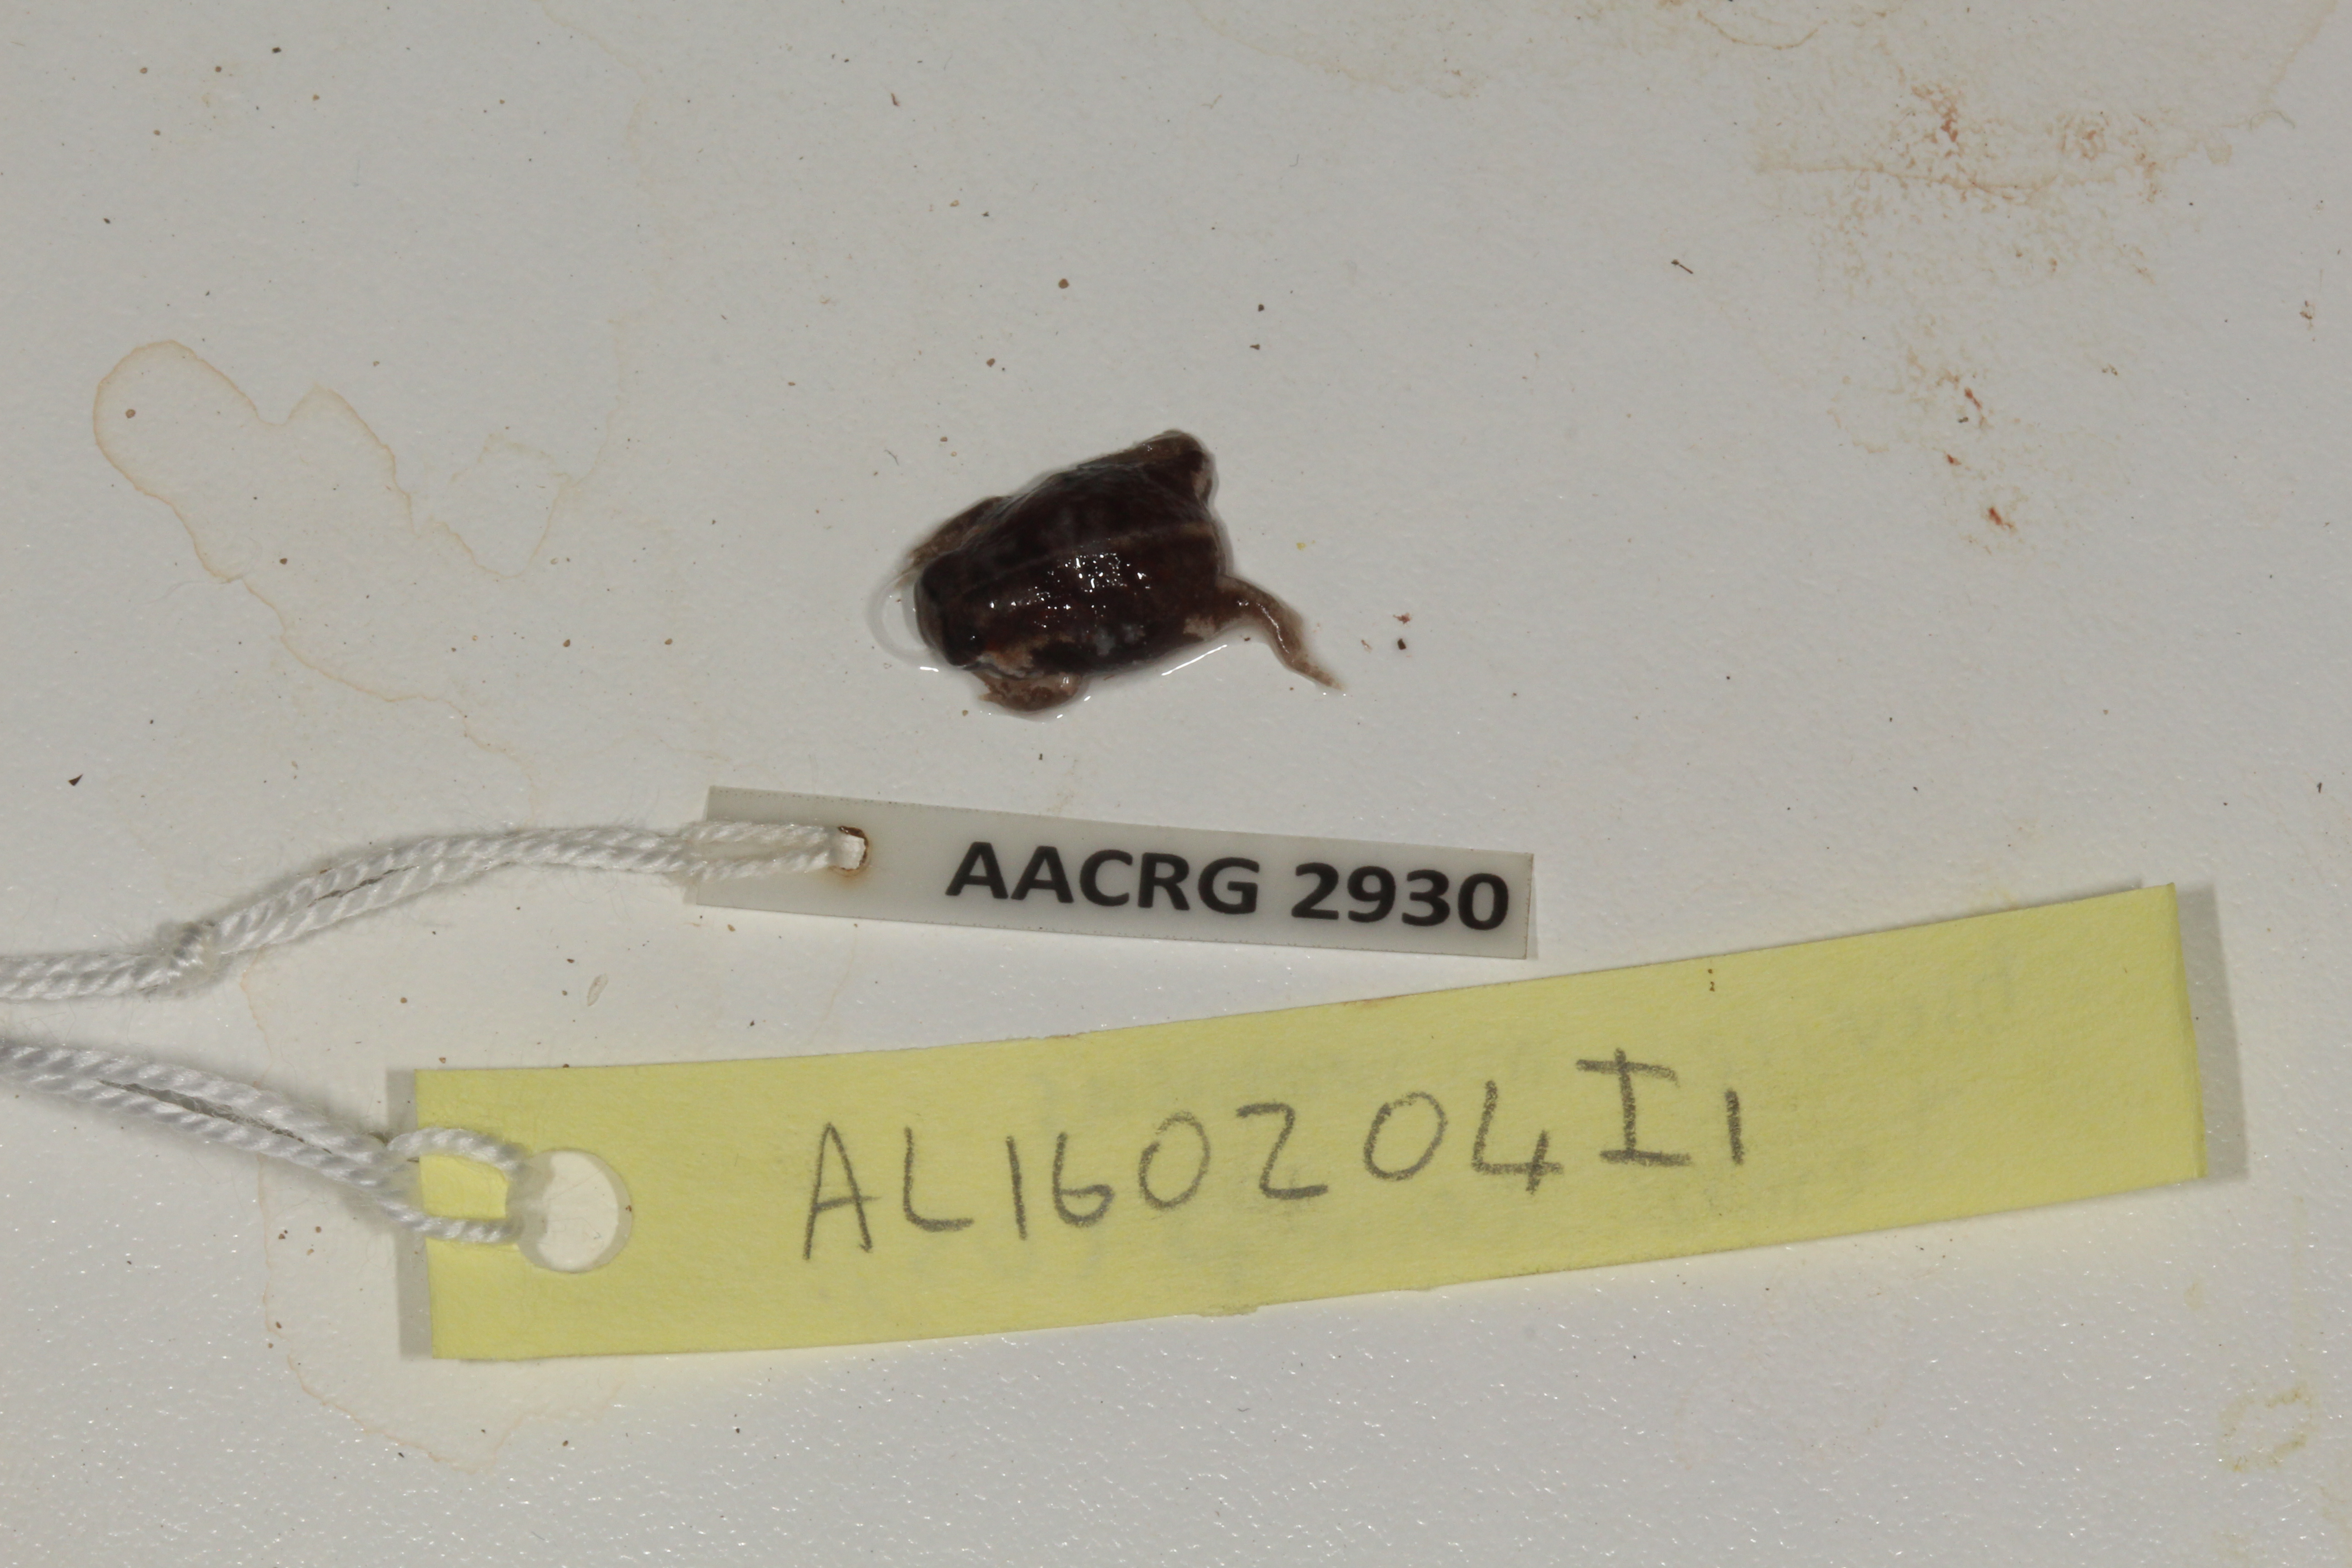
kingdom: Animalia
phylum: Chordata
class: Amphibia
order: Anura
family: Brevicipitidae
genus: Breviceps
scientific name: Breviceps mossambicus
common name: Mozambique rain frog
